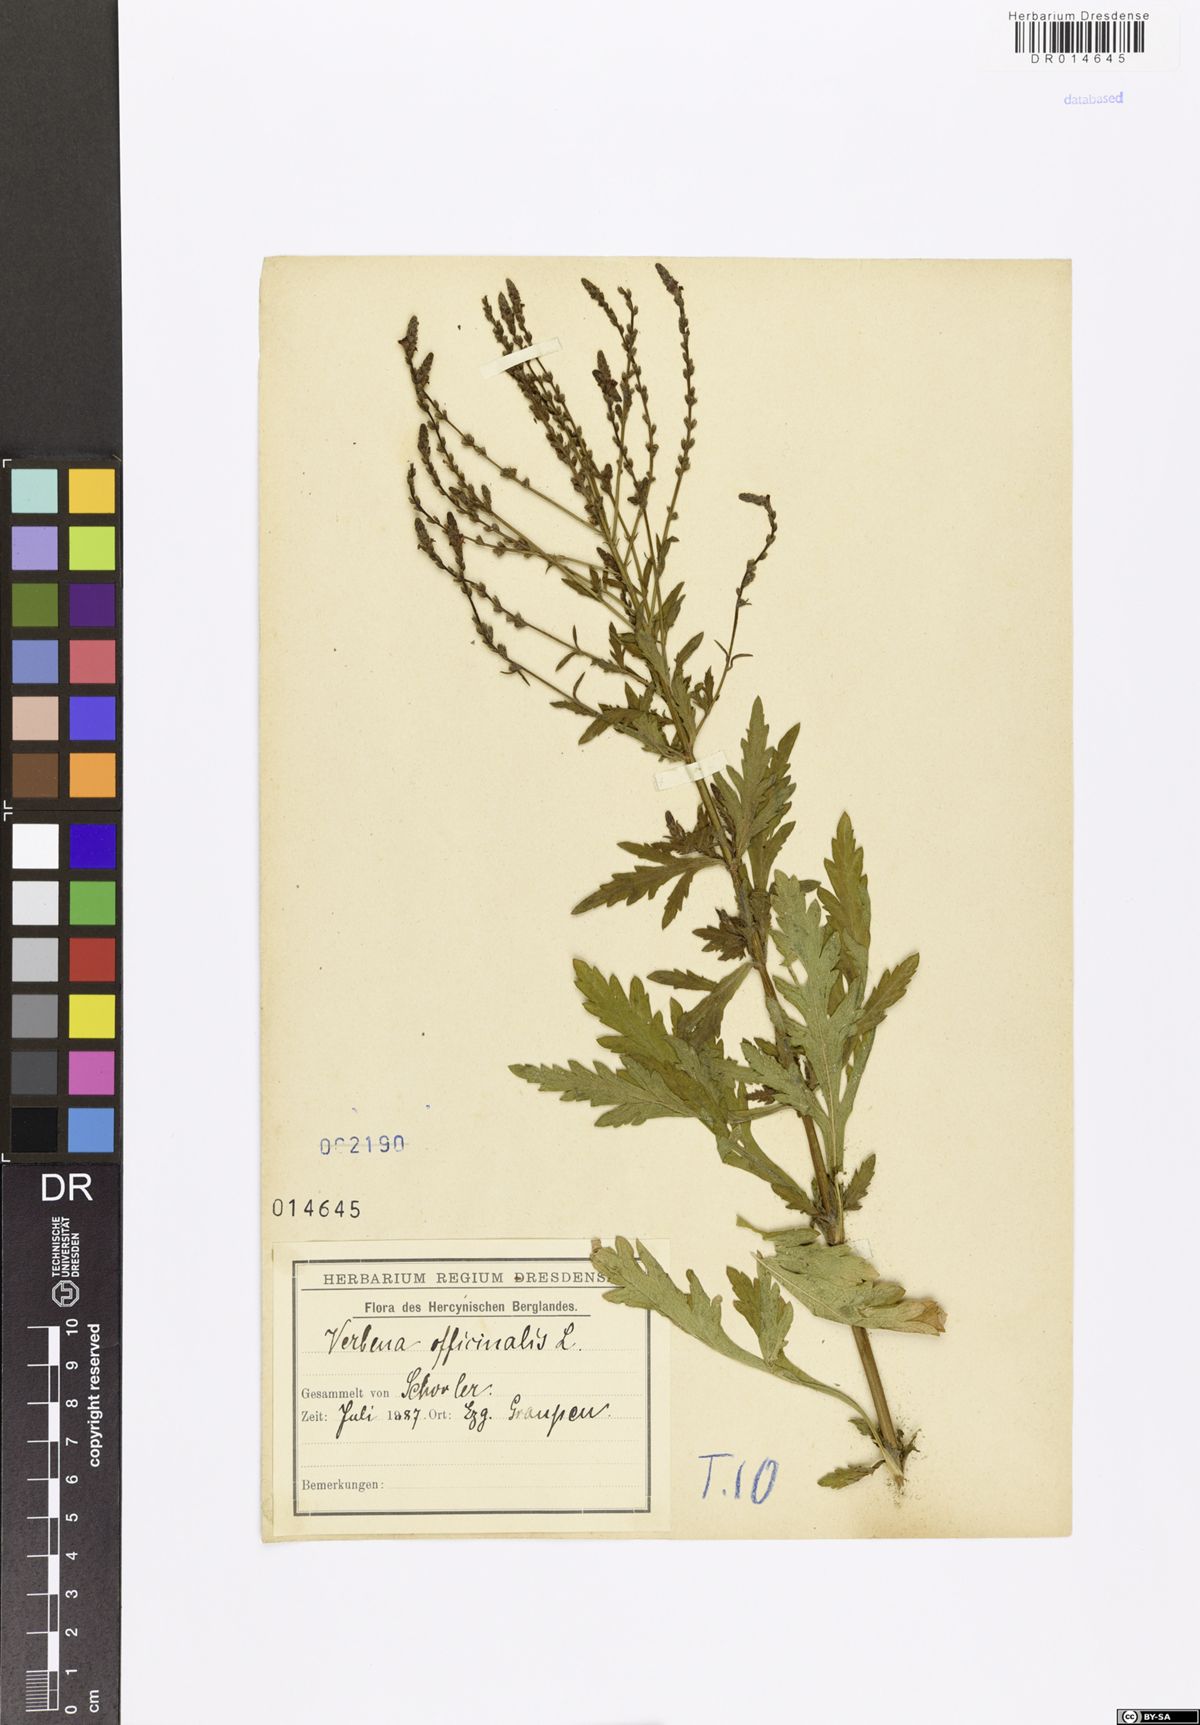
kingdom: Plantae
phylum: Tracheophyta
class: Magnoliopsida
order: Lamiales
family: Verbenaceae
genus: Verbena
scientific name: Verbena officinalis
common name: Vervain
